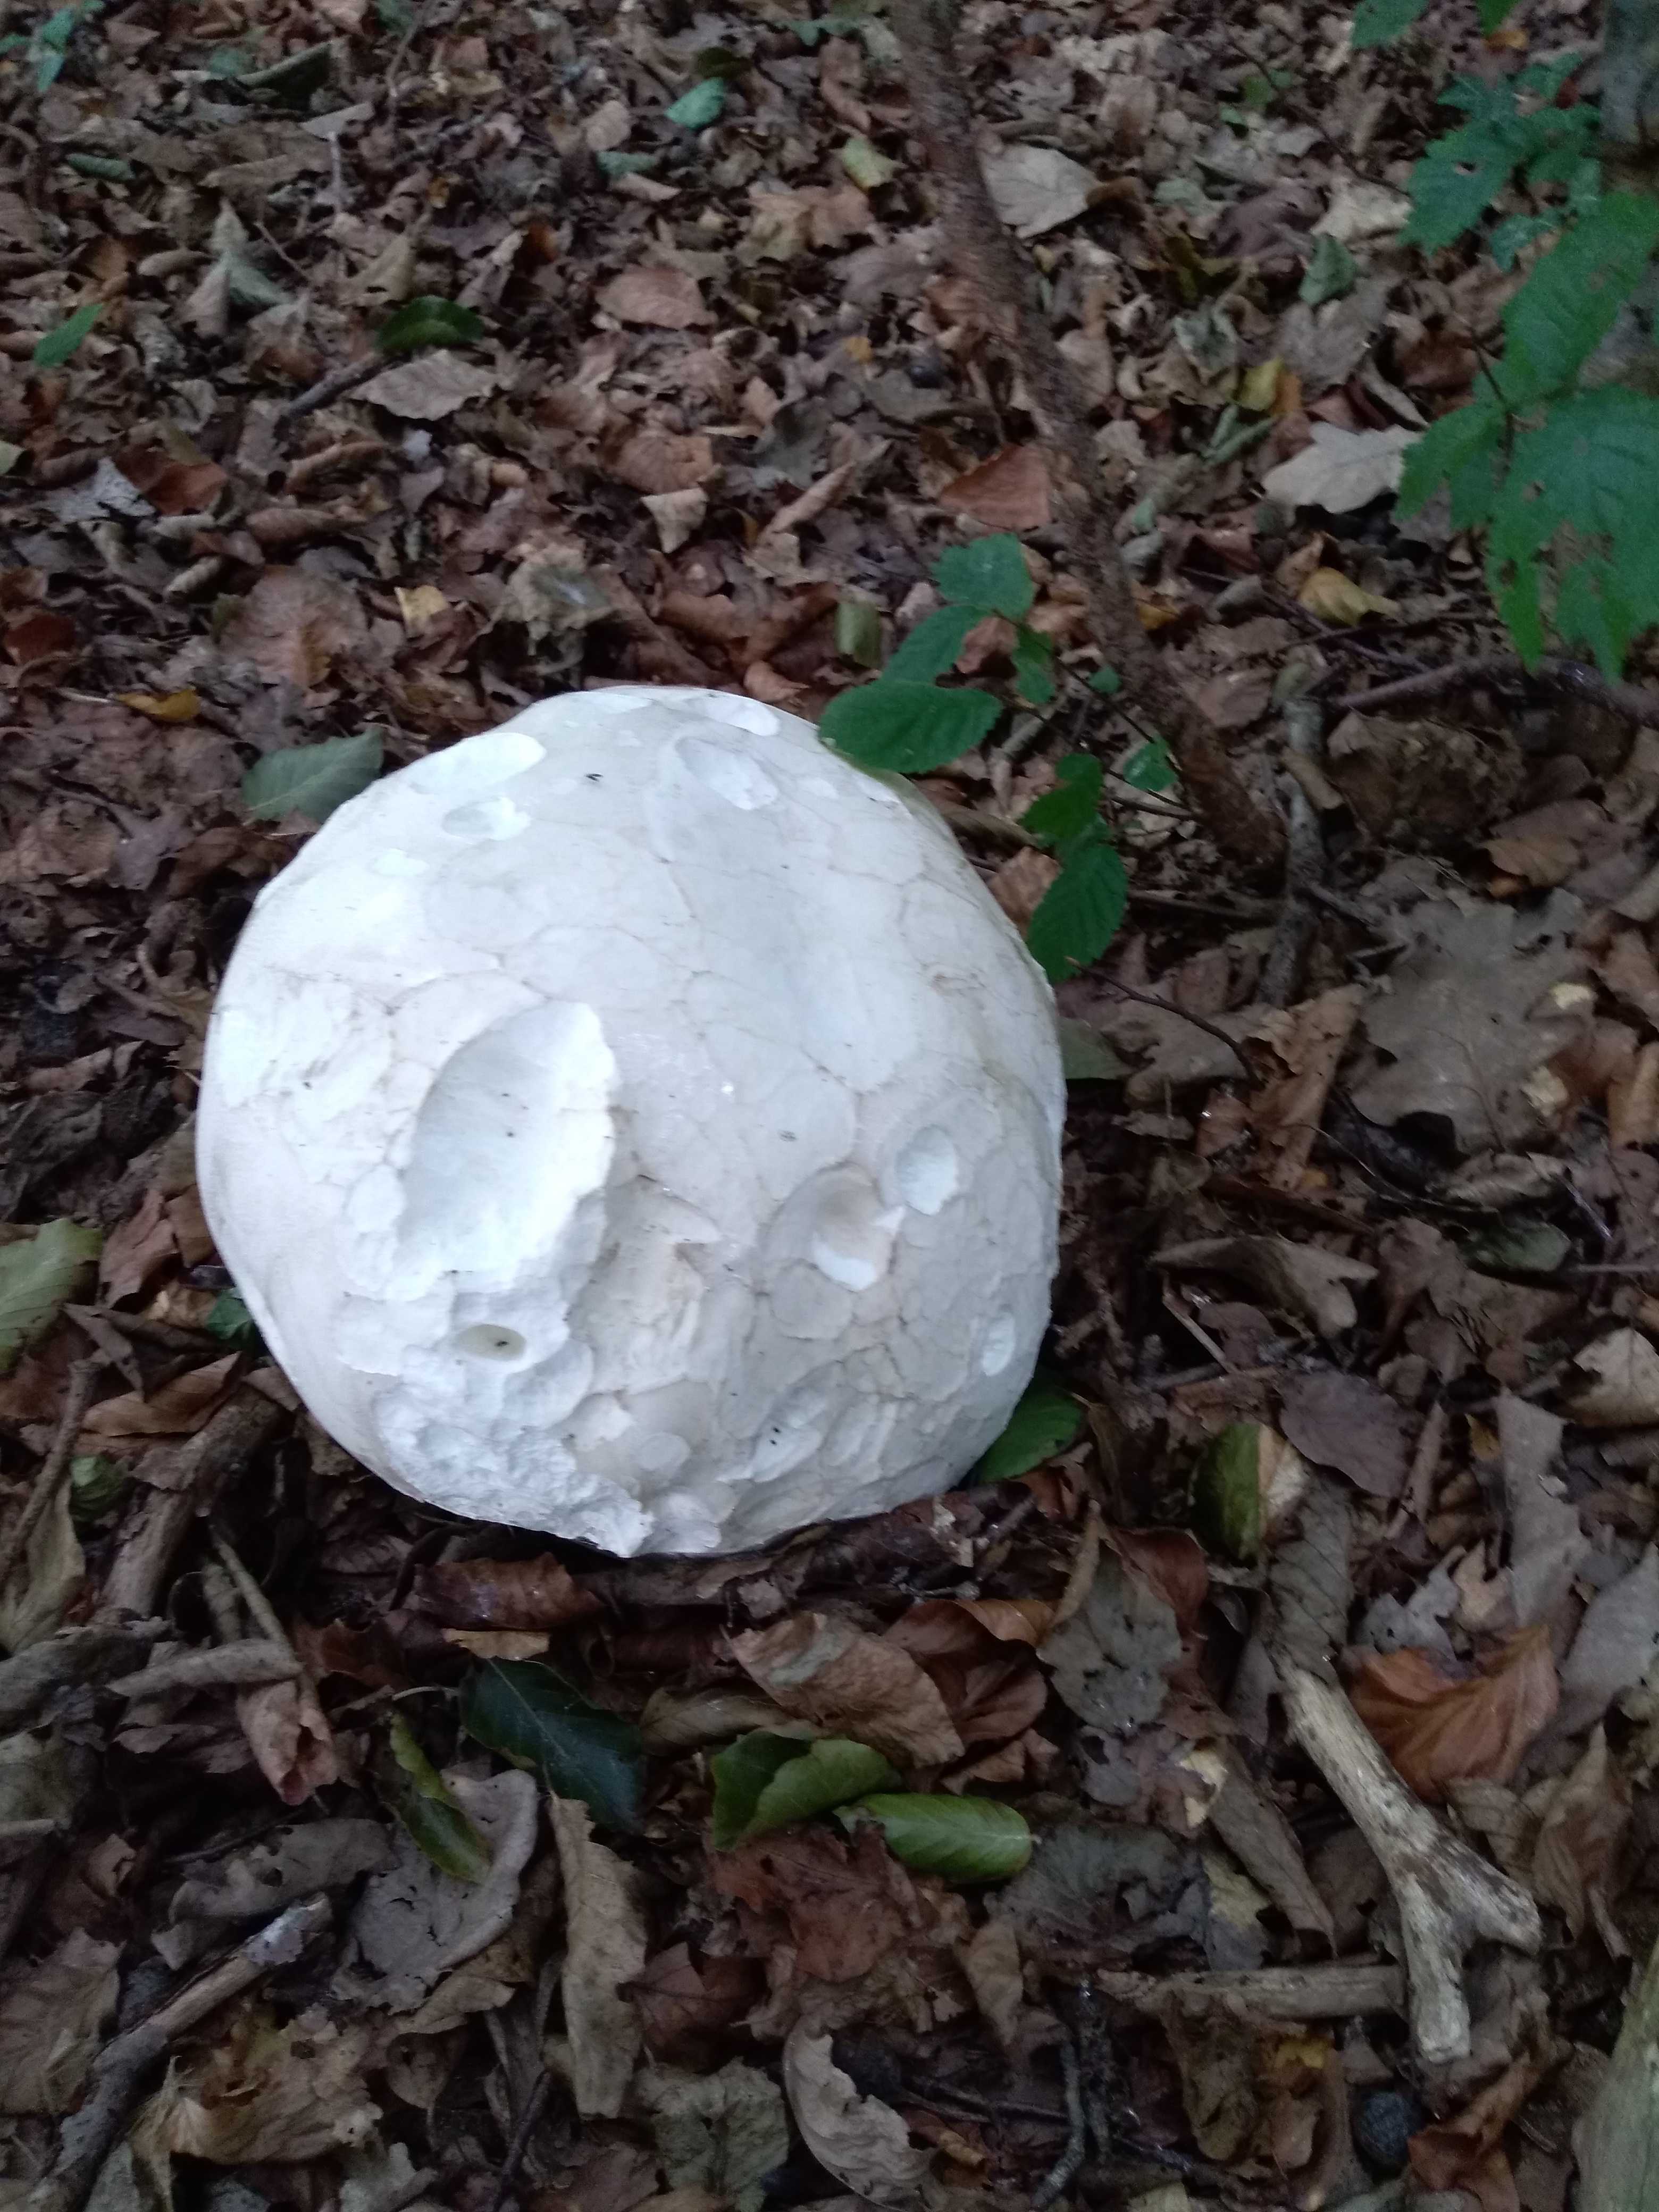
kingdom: Fungi
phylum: Basidiomycota
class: Agaricomycetes
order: Agaricales
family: Lycoperdaceae
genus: Calvatia
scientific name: Calvatia gigantea
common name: kæmpestøvbold
